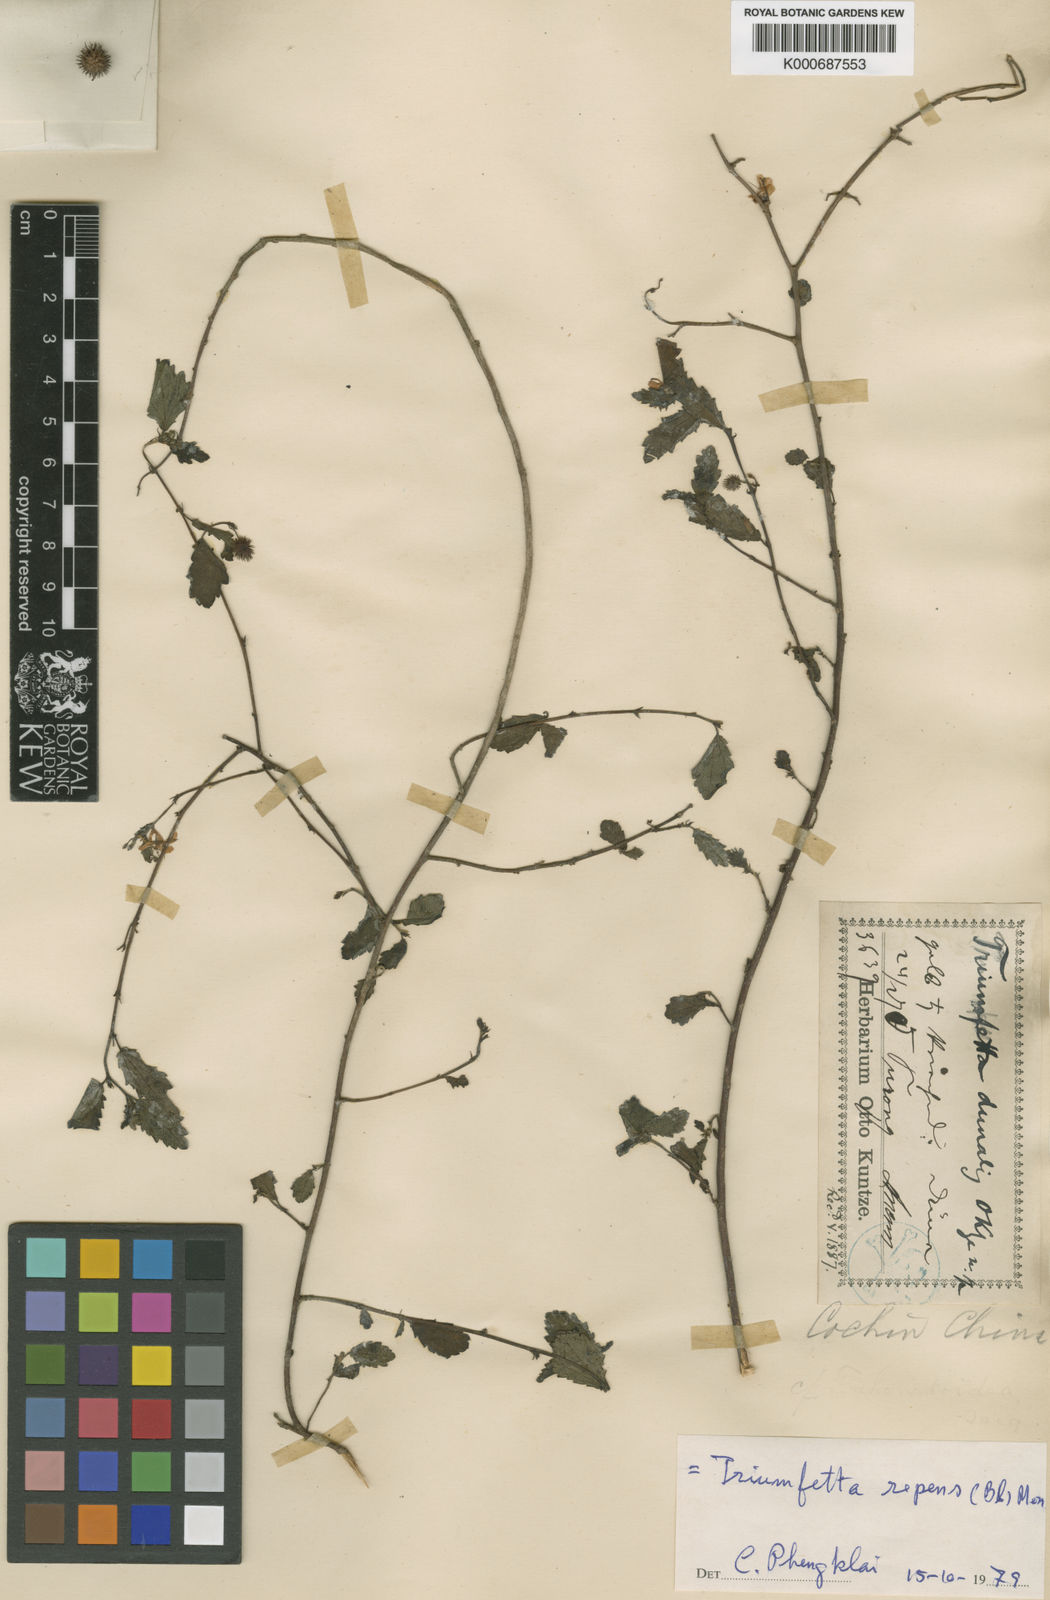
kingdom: Plantae
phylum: Tracheophyta
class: Magnoliopsida
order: Malvales
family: Malvaceae
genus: Triumfetta
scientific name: Triumfetta grandidens
